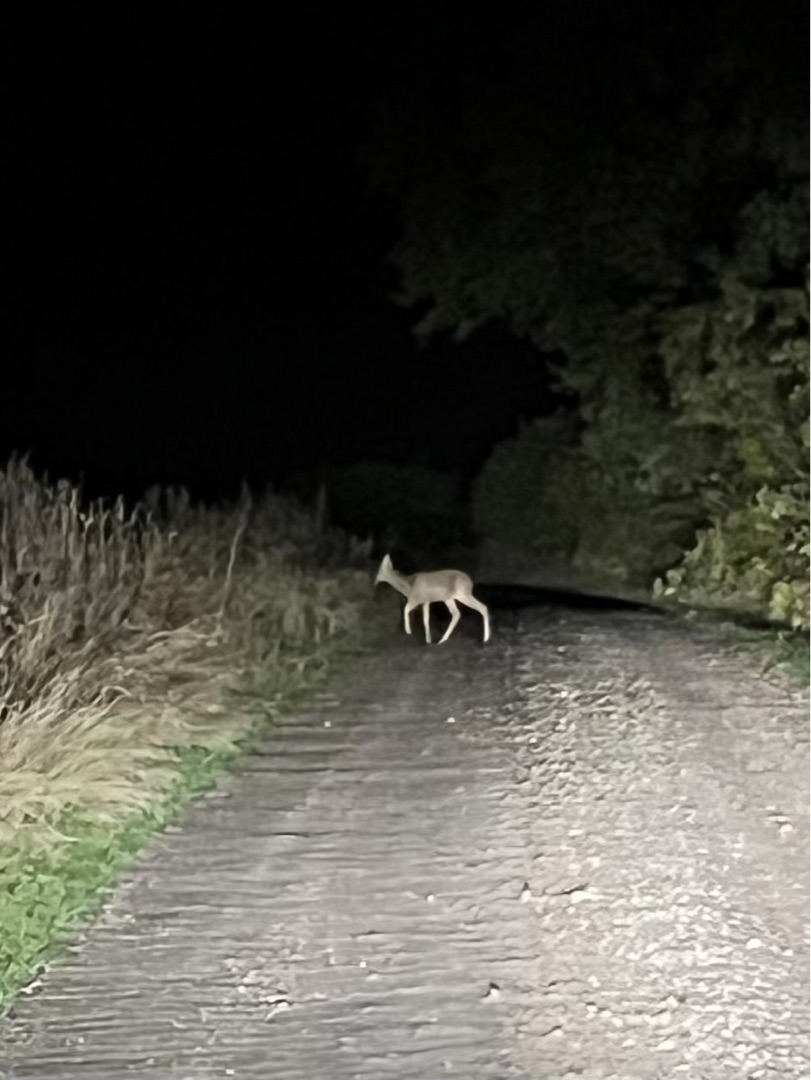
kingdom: Animalia
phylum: Chordata
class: Mammalia
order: Artiodactyla
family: Cervidae
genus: Capreolus
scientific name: Capreolus capreolus
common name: Rådyr
